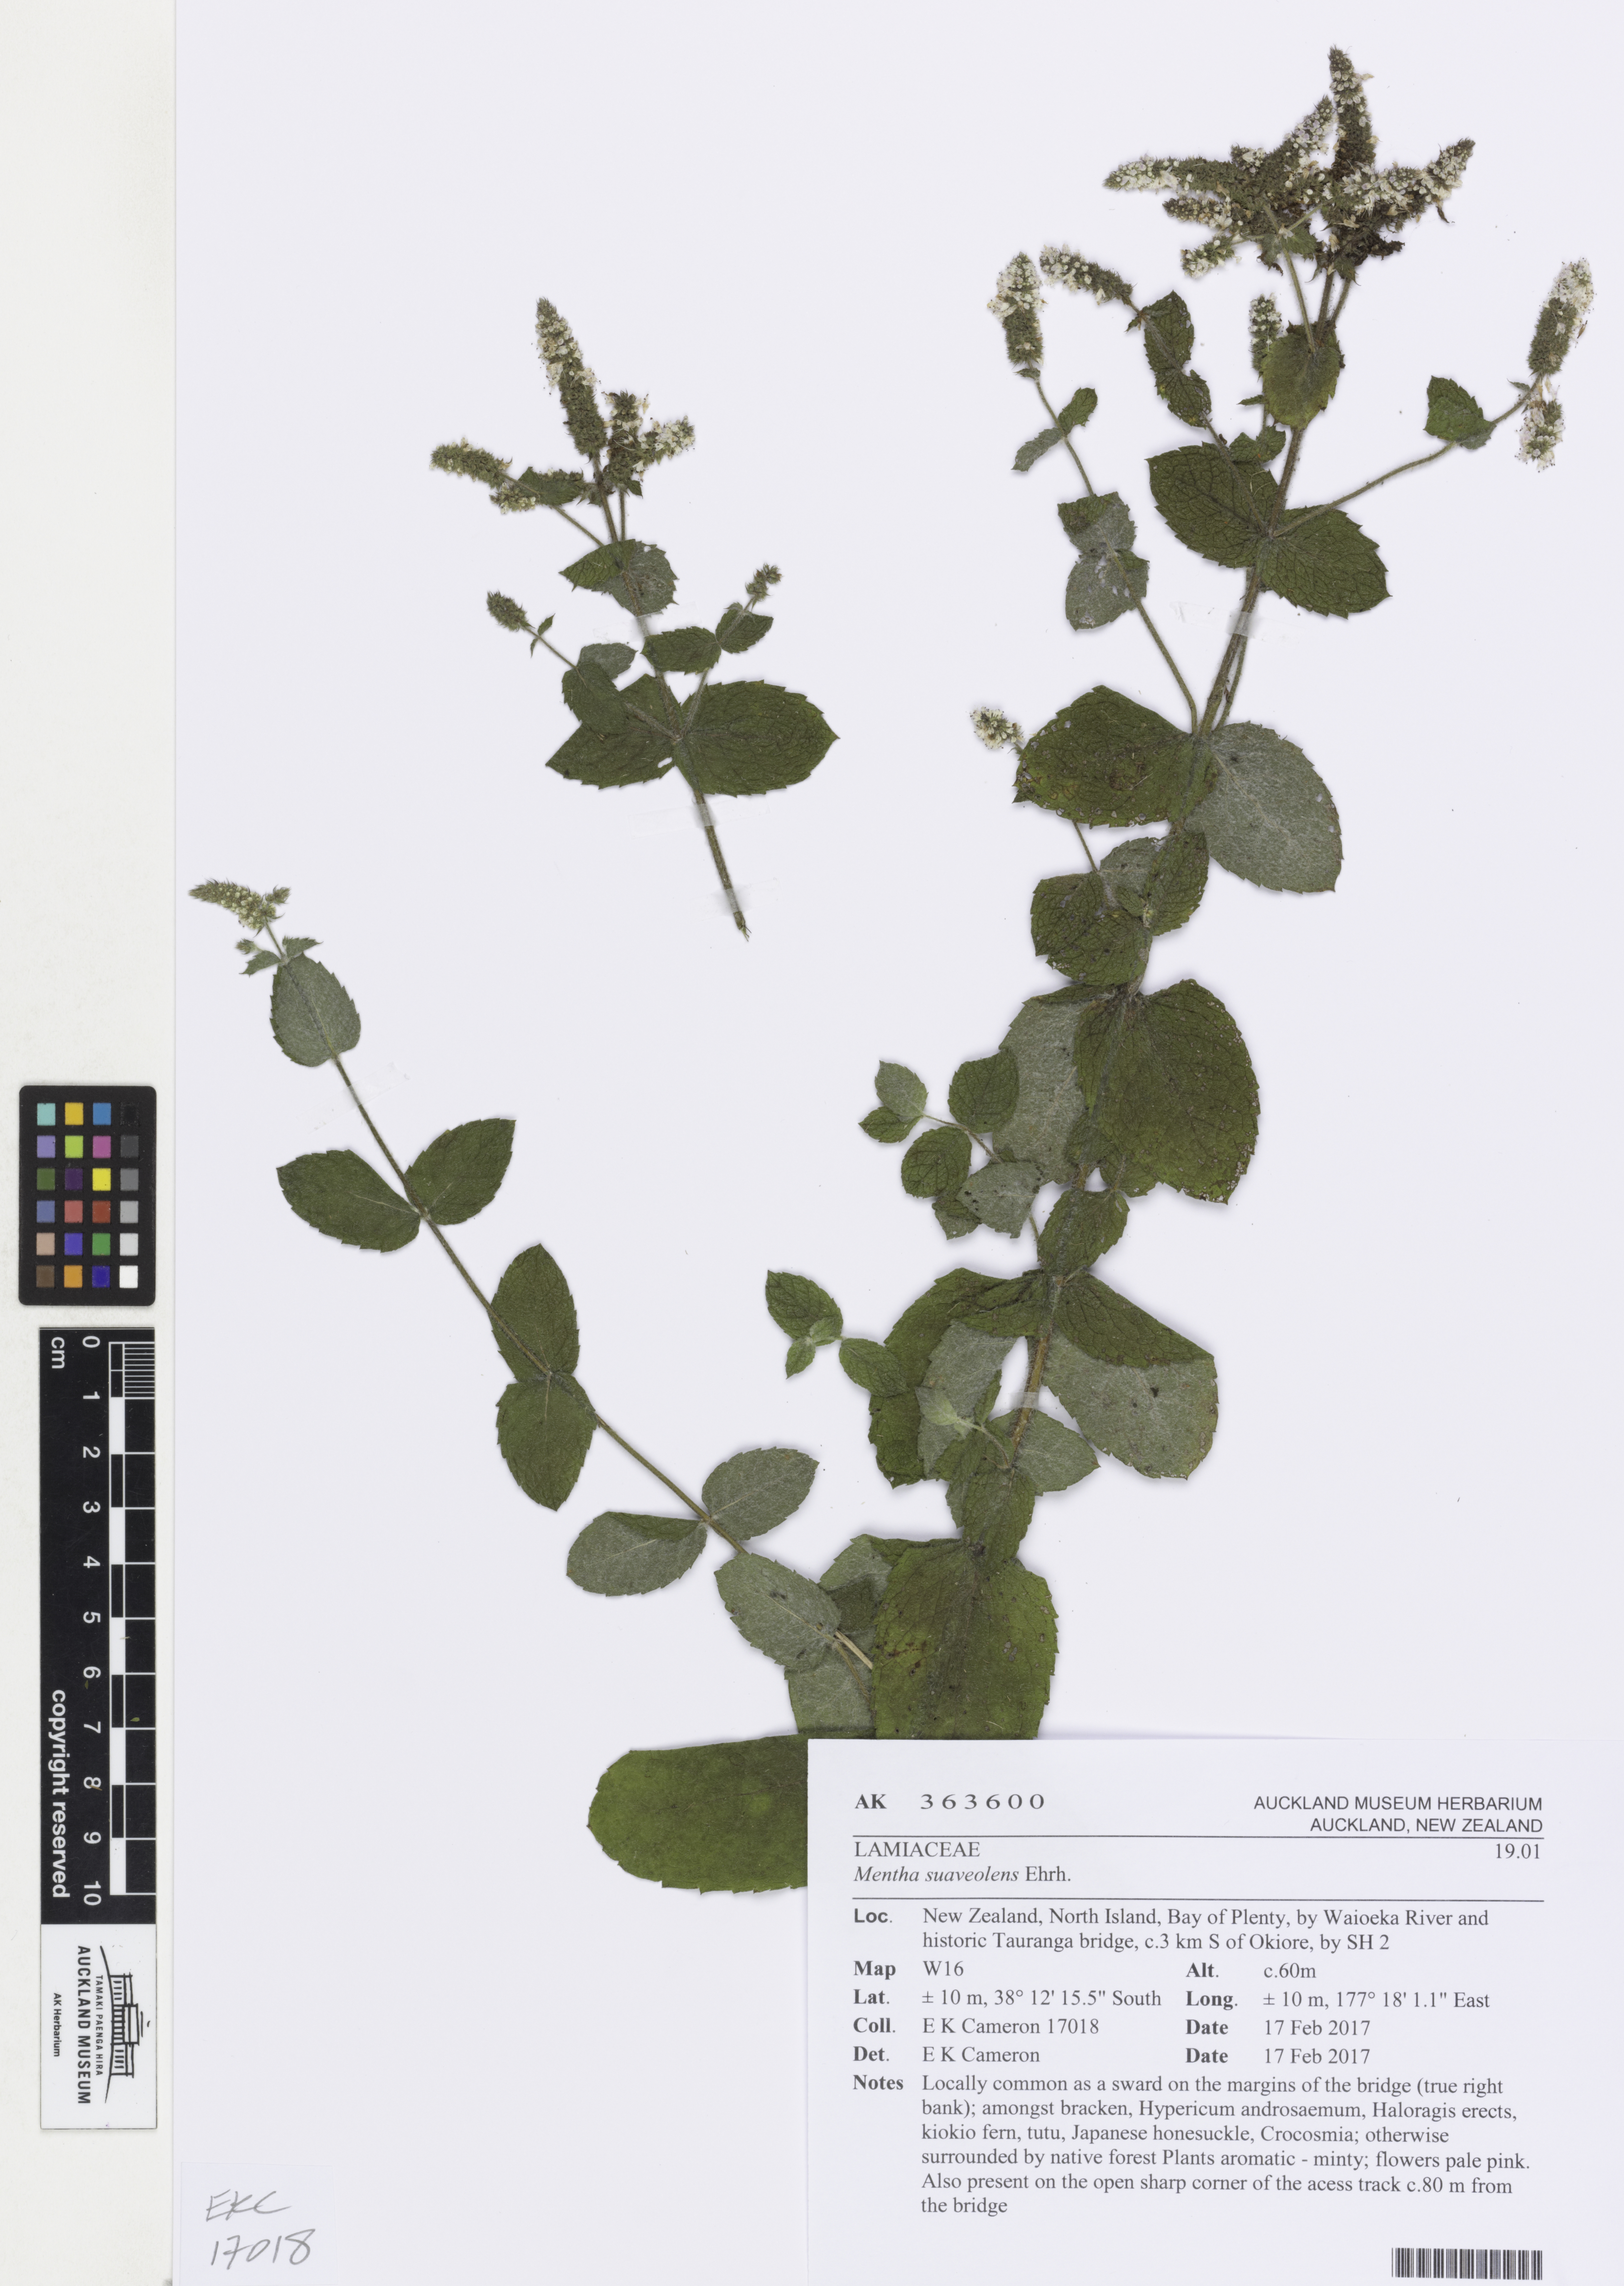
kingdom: Plantae
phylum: Tracheophyta
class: Magnoliopsida
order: Lamiales
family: Lamiaceae
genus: Mentha
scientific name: Mentha suaveolens
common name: Apple mint
